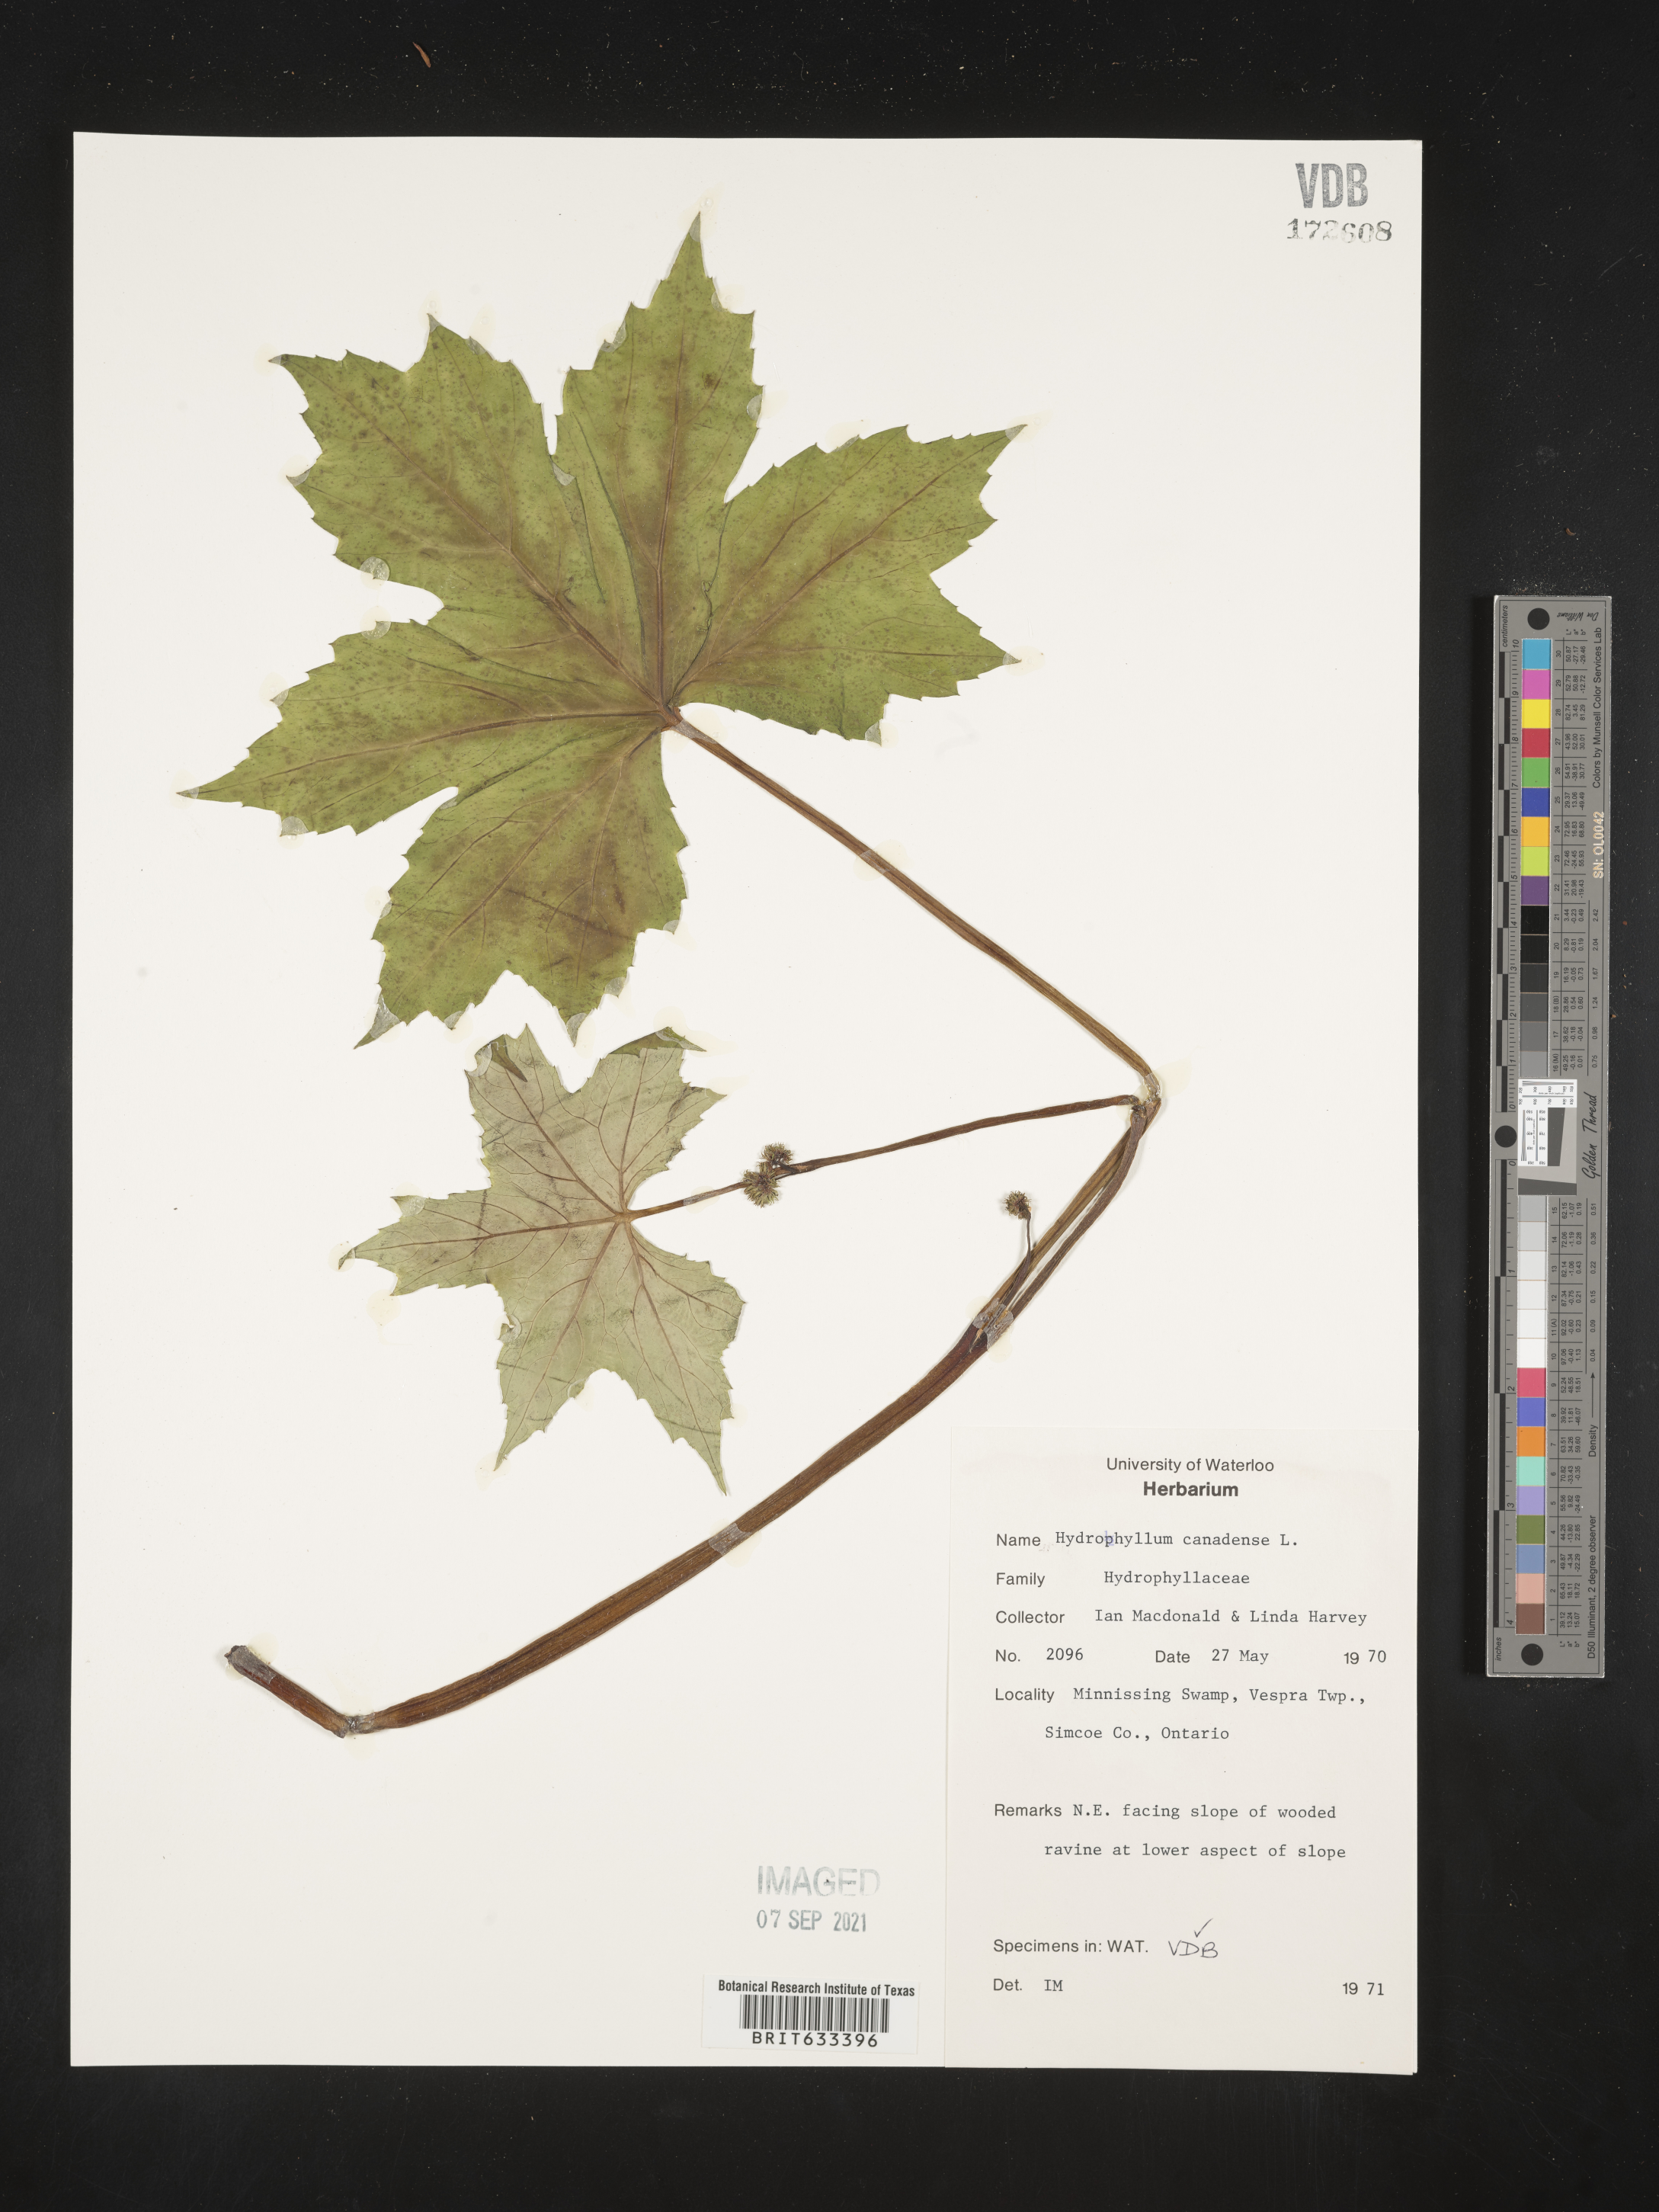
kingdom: Plantae
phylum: Tracheophyta
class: Magnoliopsida
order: Boraginales
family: Hydrophyllaceae
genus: Hydrophyllum
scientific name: Hydrophyllum canadense
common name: Canada waterleaf
